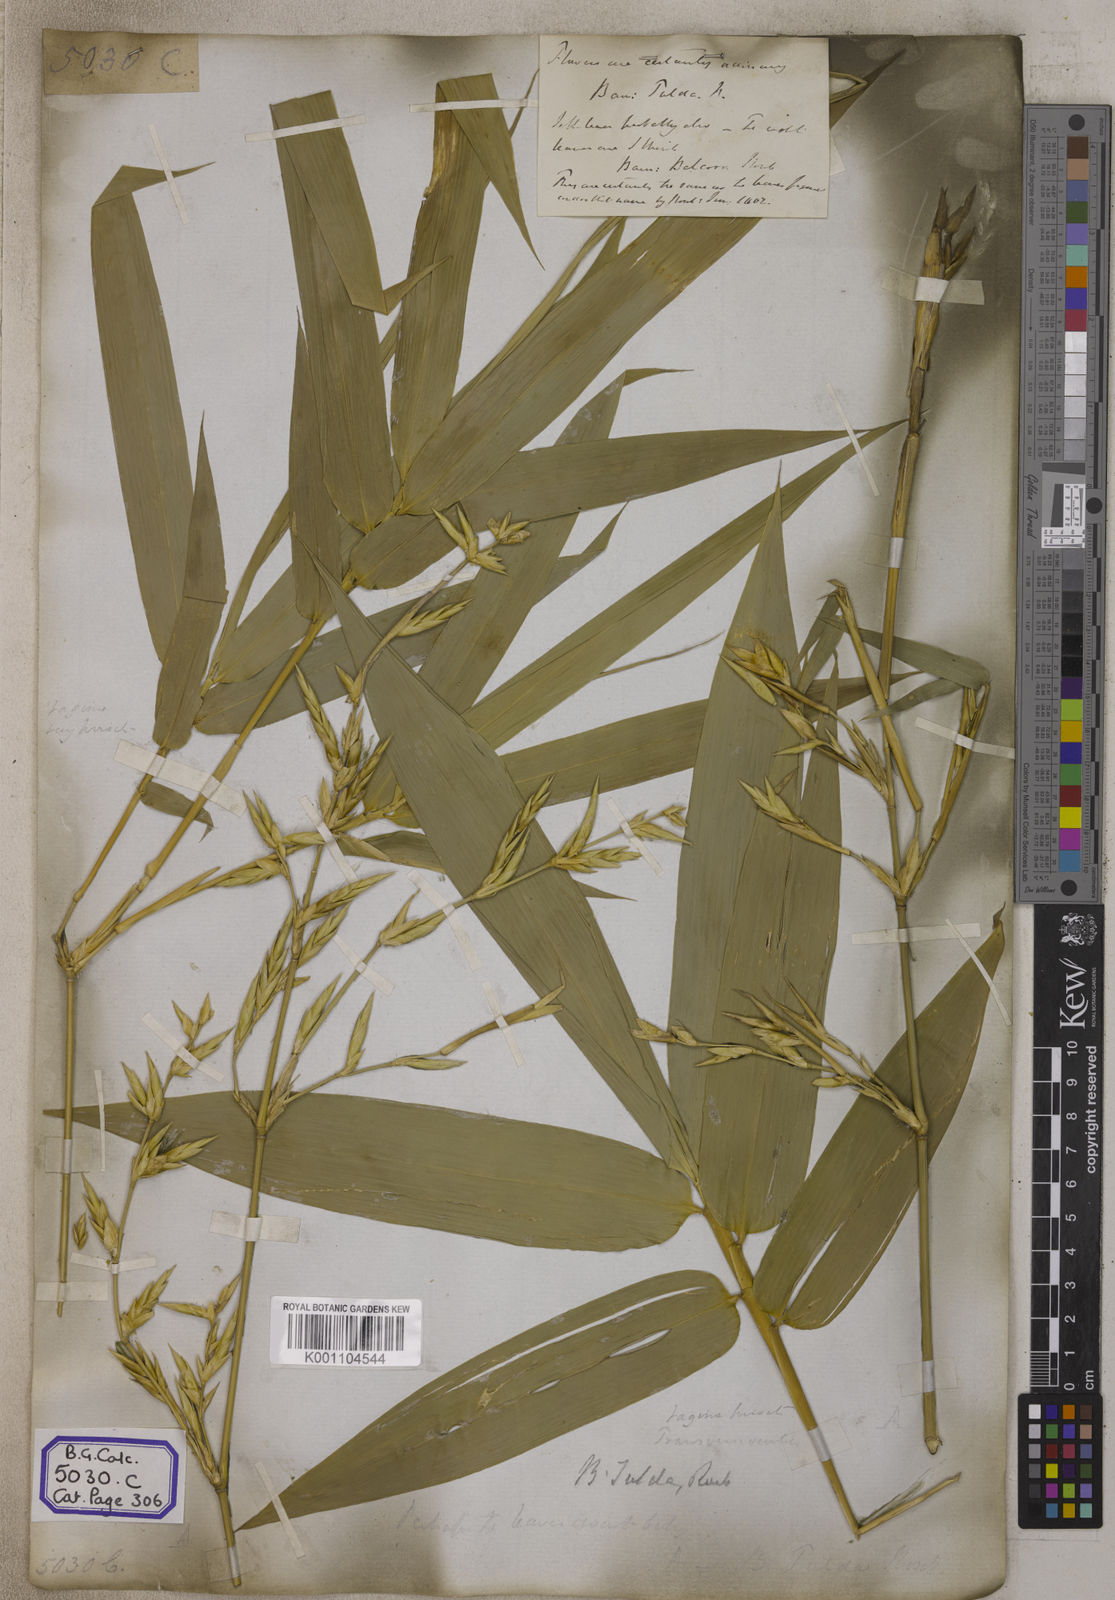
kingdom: Plantae
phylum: Tracheophyta
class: Liliopsida
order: Poales
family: Poaceae
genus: Bambusa
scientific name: Bambusa
